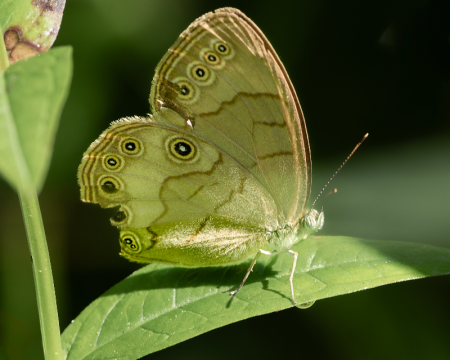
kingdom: Animalia
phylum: Arthropoda
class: Insecta
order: Lepidoptera
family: Nymphalidae
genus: Lethe
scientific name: Lethe eurydice
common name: Appalachian Eyed Brown
